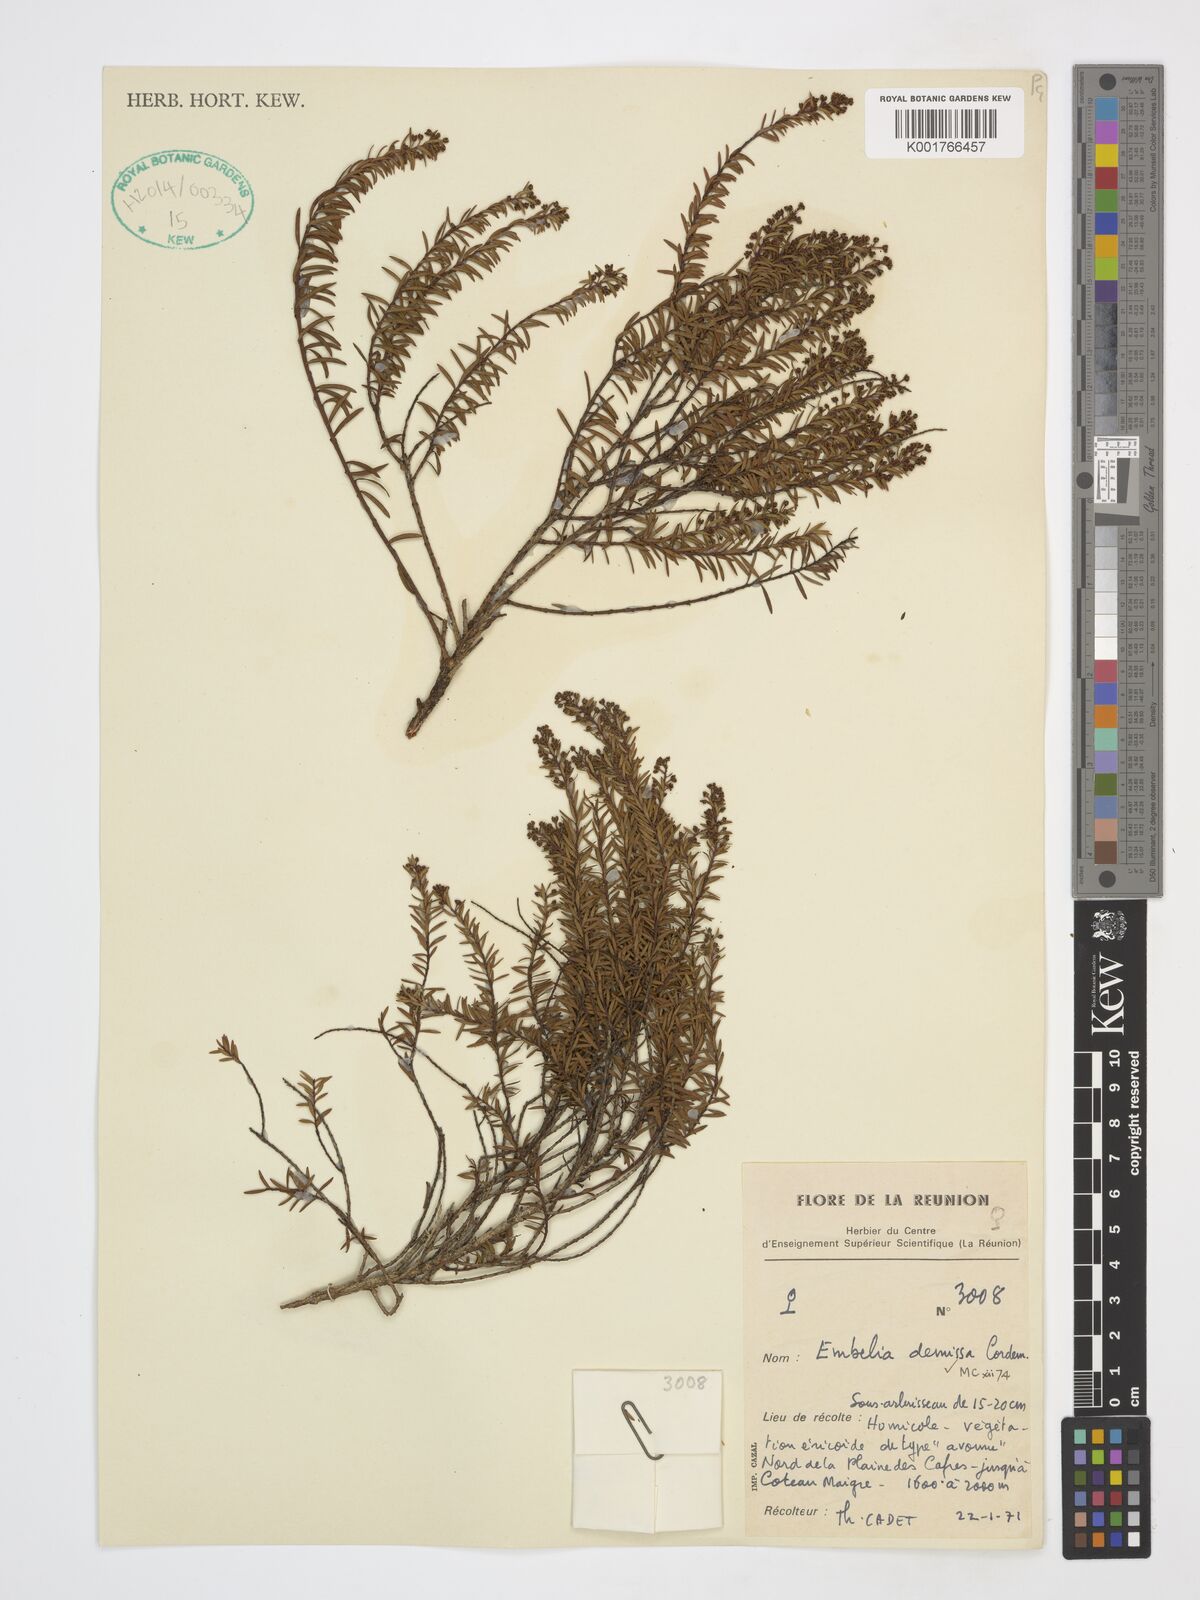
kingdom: Plantae
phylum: Tracheophyta
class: Magnoliopsida
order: Ericales
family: Primulaceae
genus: Embelia
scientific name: Embelia demissa
